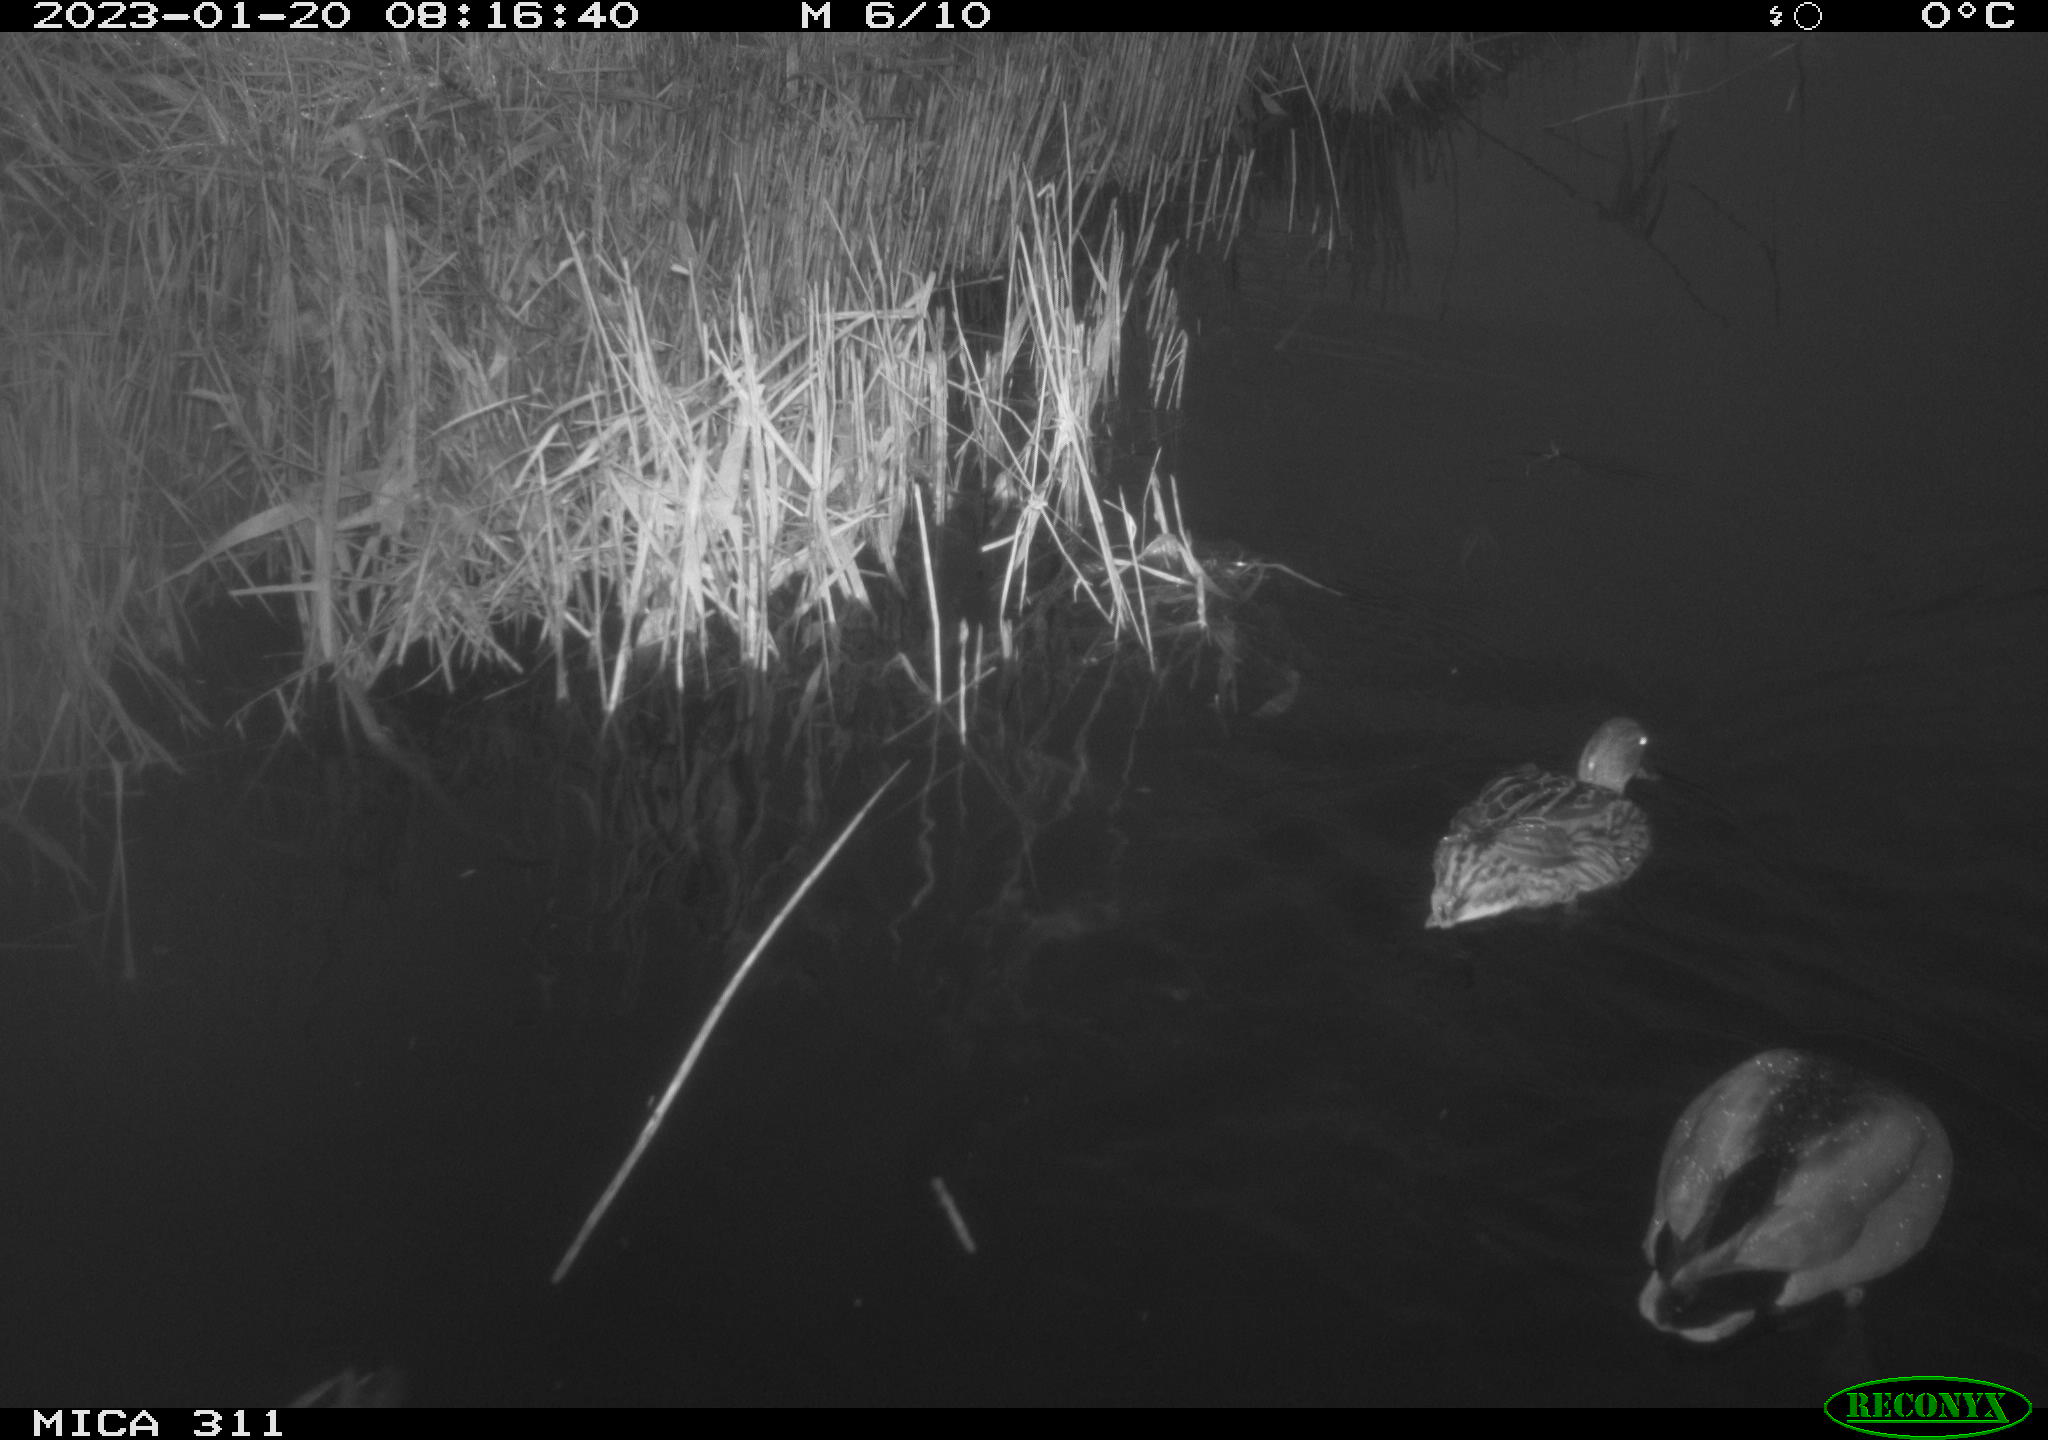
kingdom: Animalia
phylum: Chordata
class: Aves
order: Anseriformes
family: Anatidae
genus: Anas
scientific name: Anas
